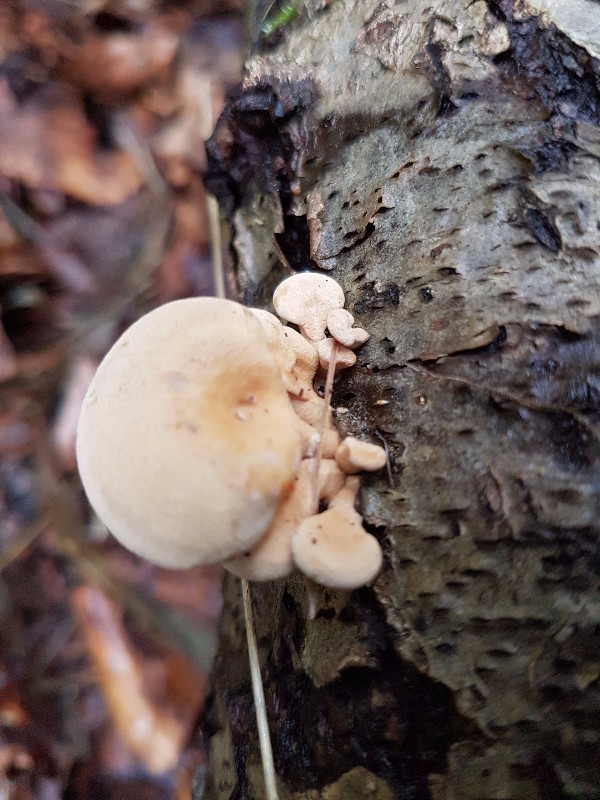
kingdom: Fungi
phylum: Basidiomycota
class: Agaricomycetes
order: Agaricales
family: Mycenaceae
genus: Panellus
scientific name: Panellus mitis
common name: mild epaulethat
